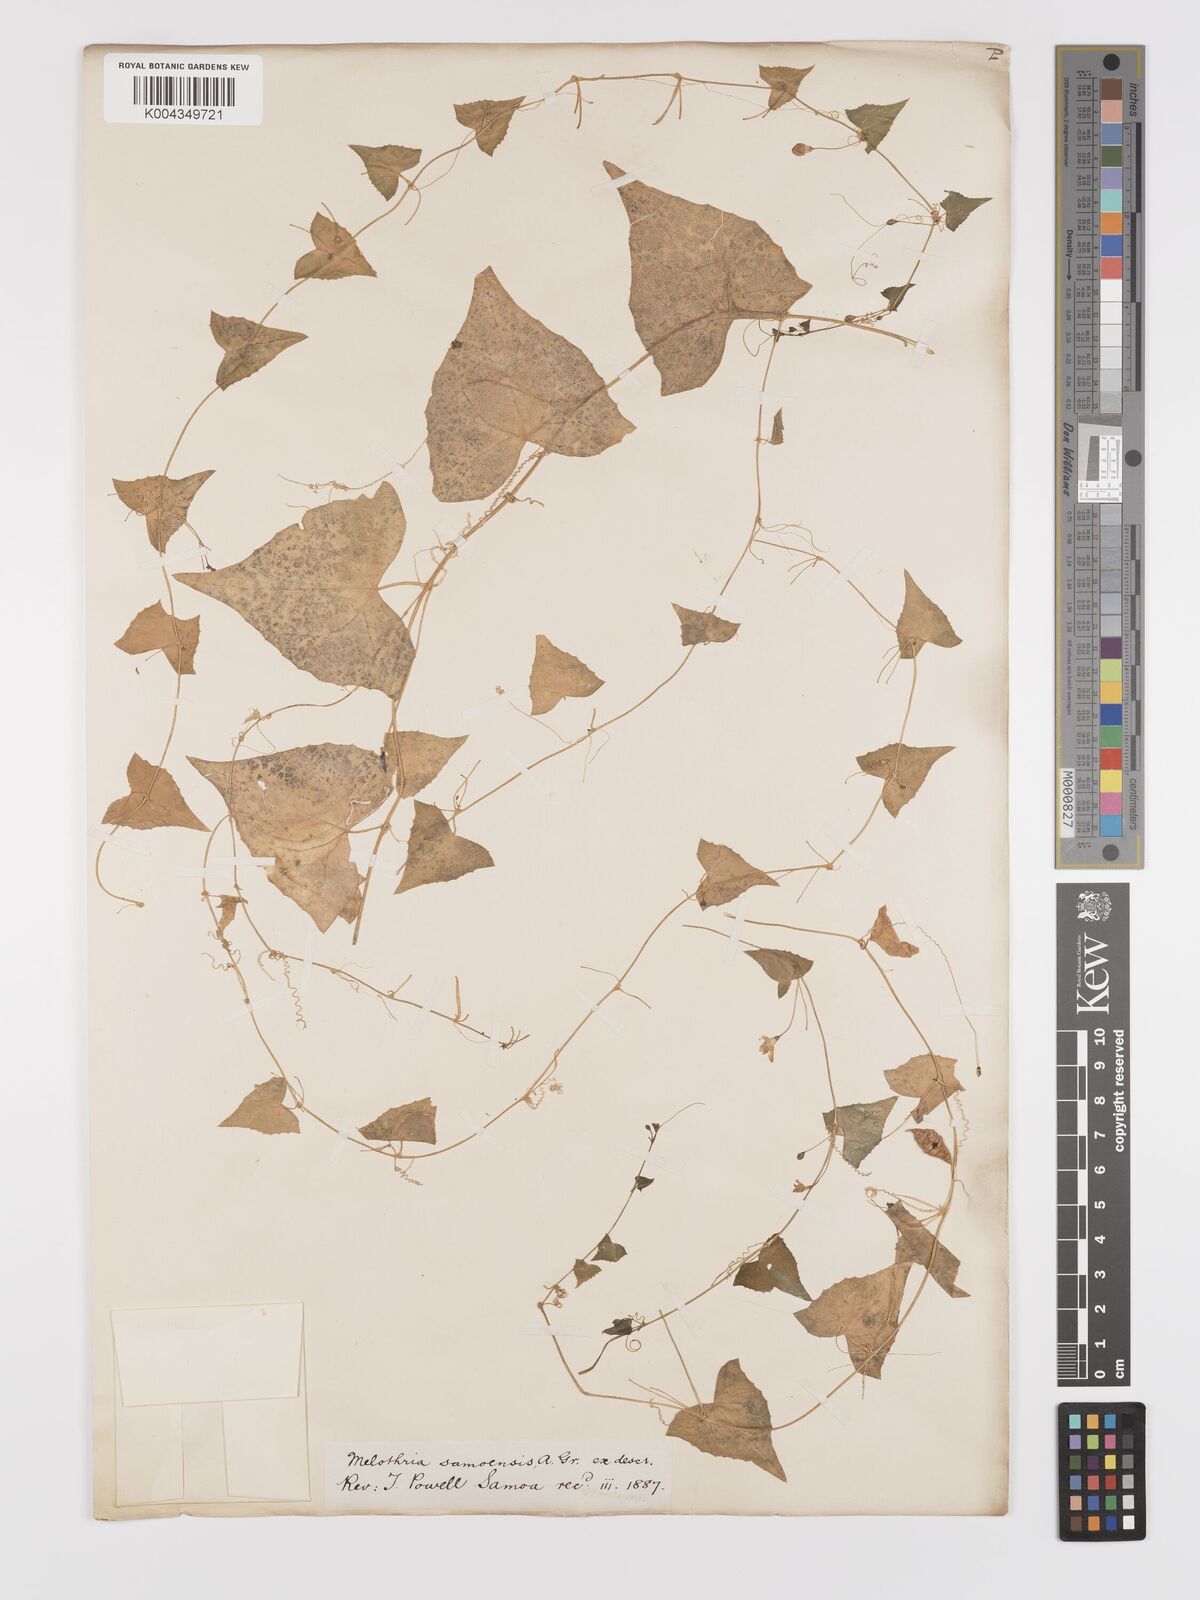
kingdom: Plantae
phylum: Tracheophyta
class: Magnoliopsida
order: Cucurbitales
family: Cucurbitaceae
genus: Zehneria
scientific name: Zehneria mucronata
